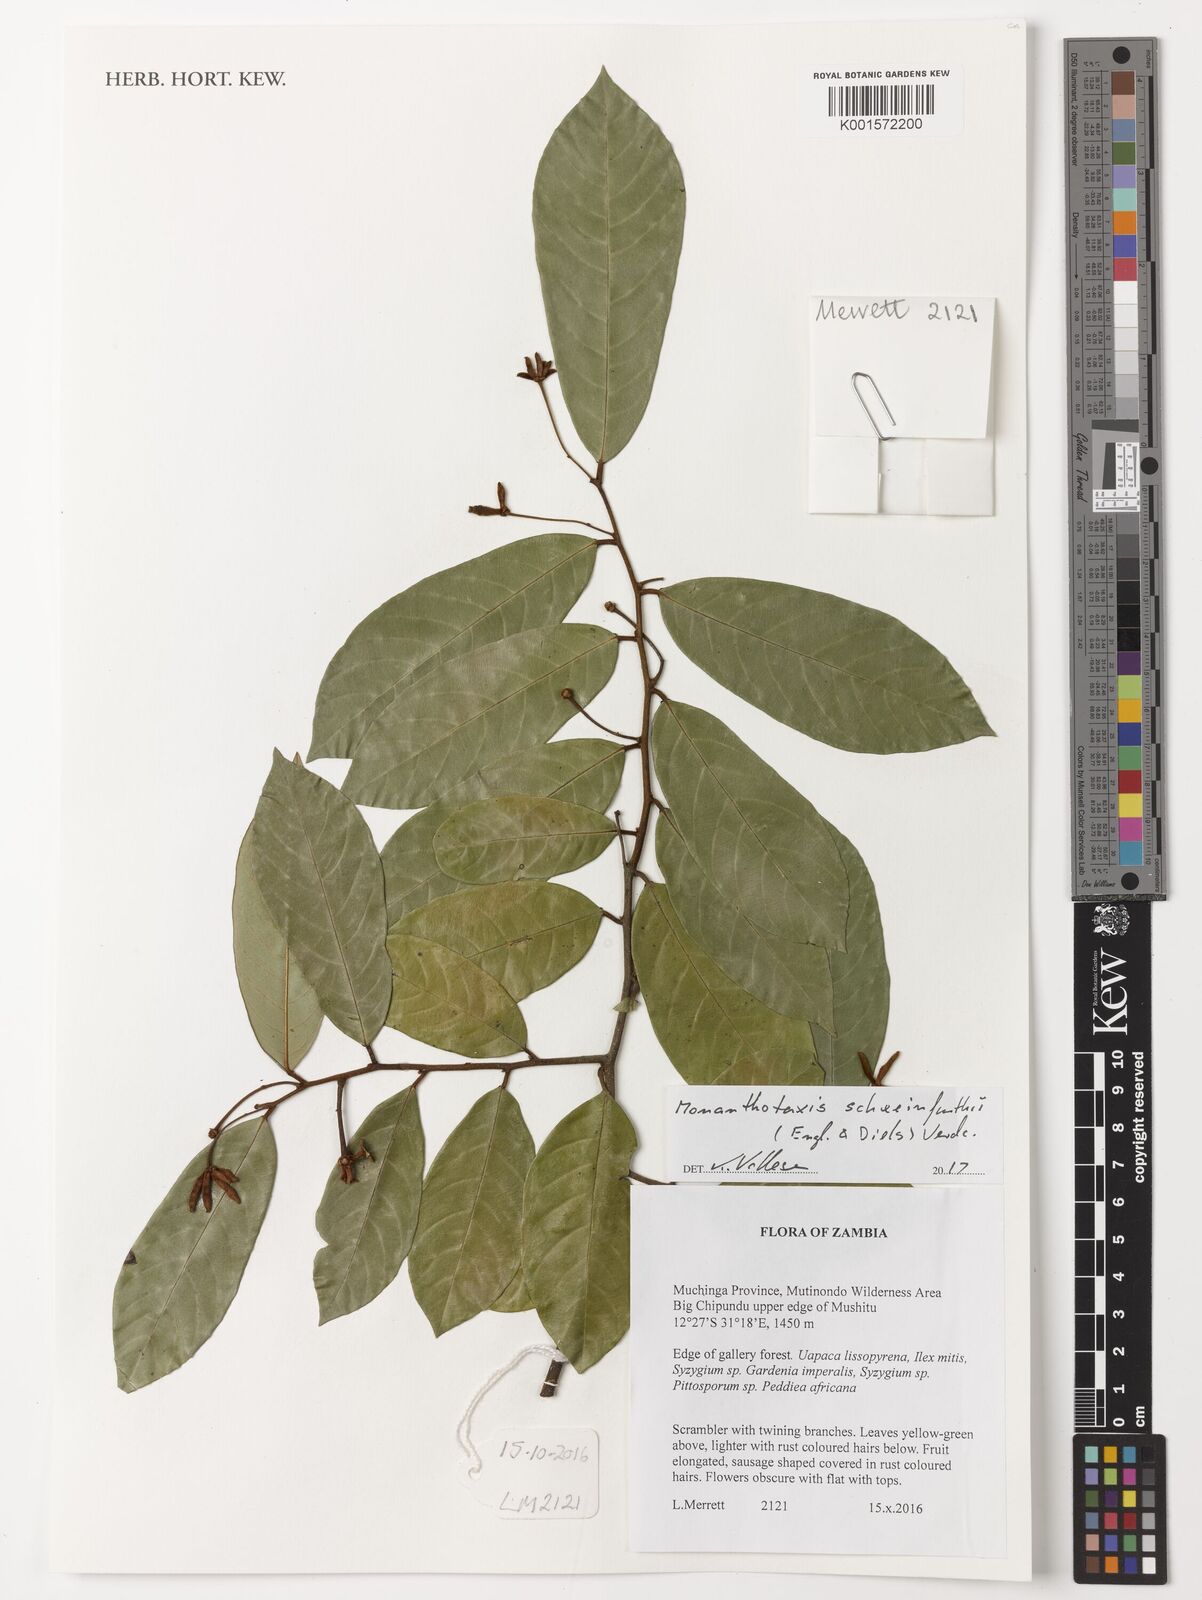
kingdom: Plantae
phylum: Tracheophyta
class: Magnoliopsida
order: Magnoliales
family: Annonaceae
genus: Monanthotaxis
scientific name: Monanthotaxis schweinfurthii
